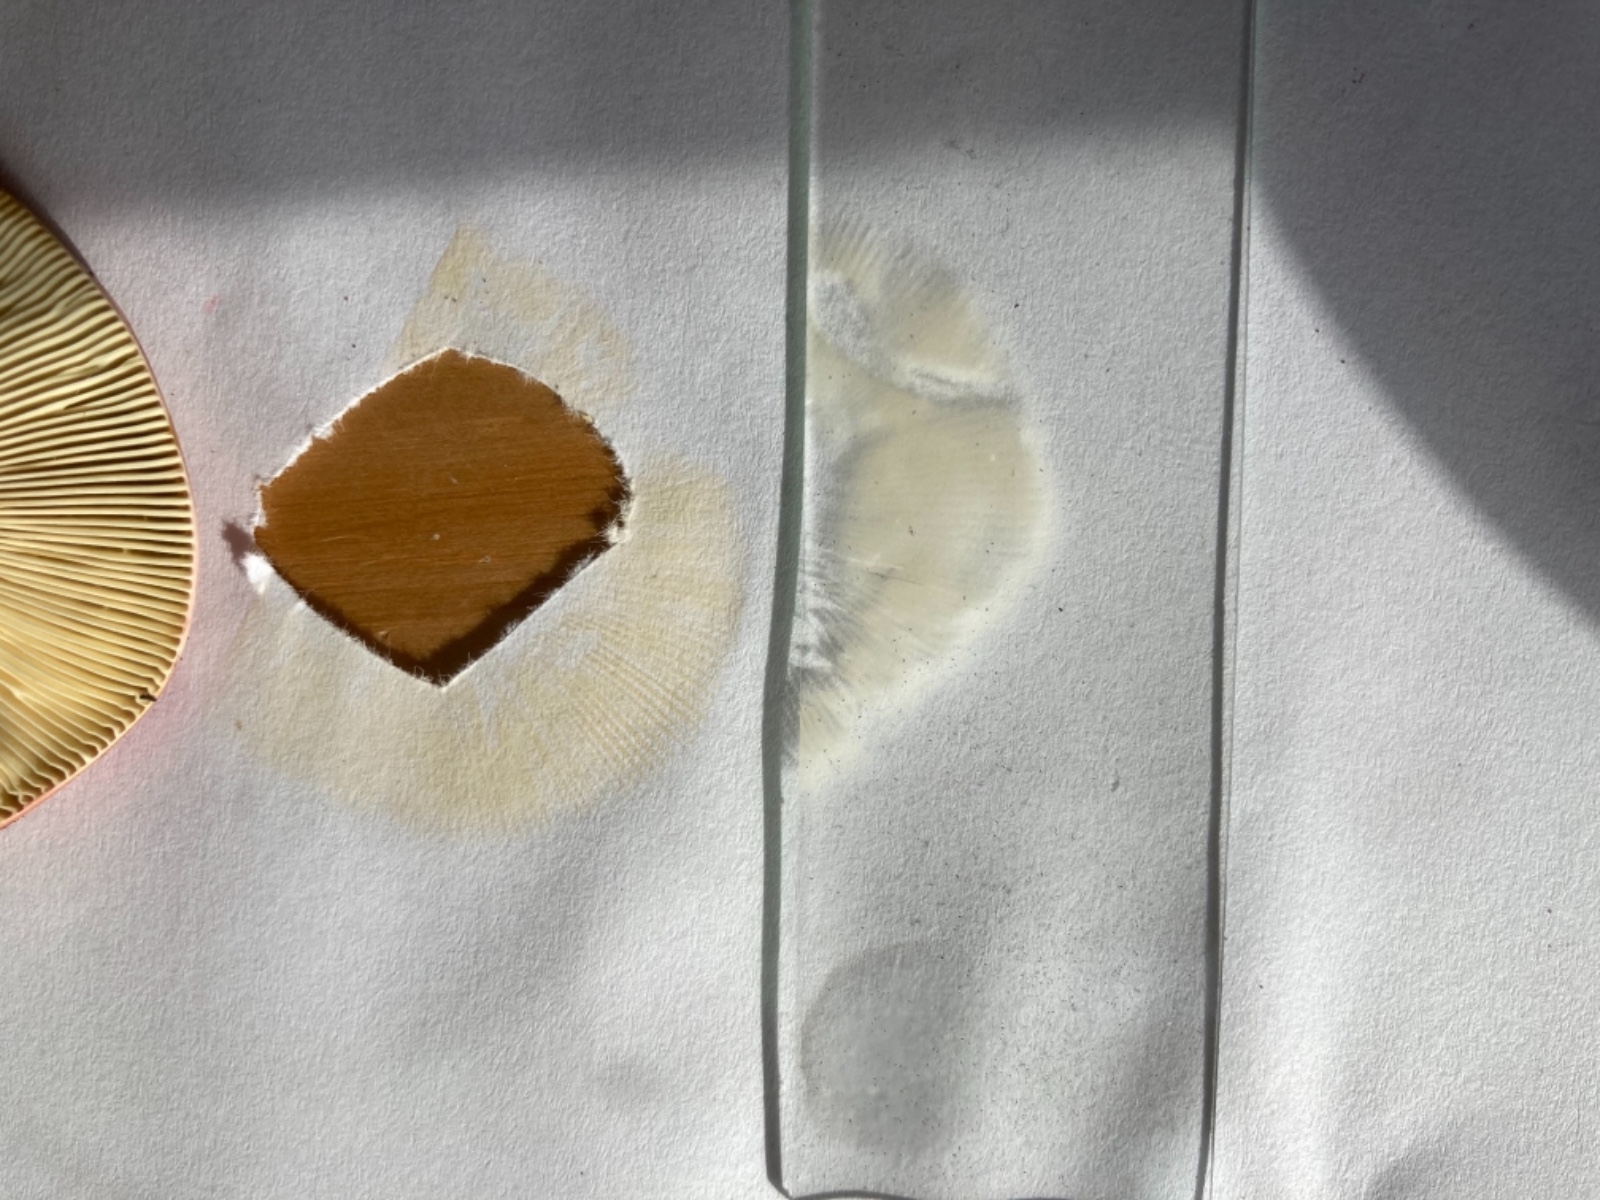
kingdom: Fungi
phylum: Basidiomycota
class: Agaricomycetes
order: Russulales
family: Russulaceae
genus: Russula
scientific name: Russula emetica
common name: matrød skørhat
